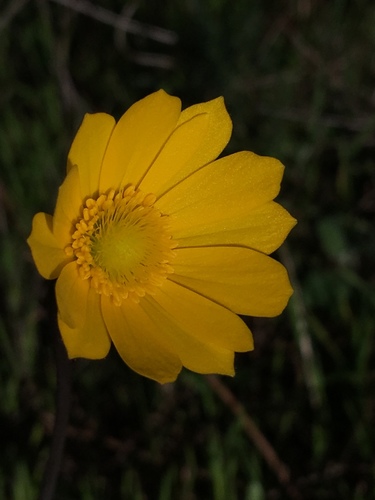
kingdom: Plantae
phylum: Tracheophyta
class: Magnoliopsida
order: Ranunculales
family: Ranunculaceae
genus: Anemone
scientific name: Anemone palmata
